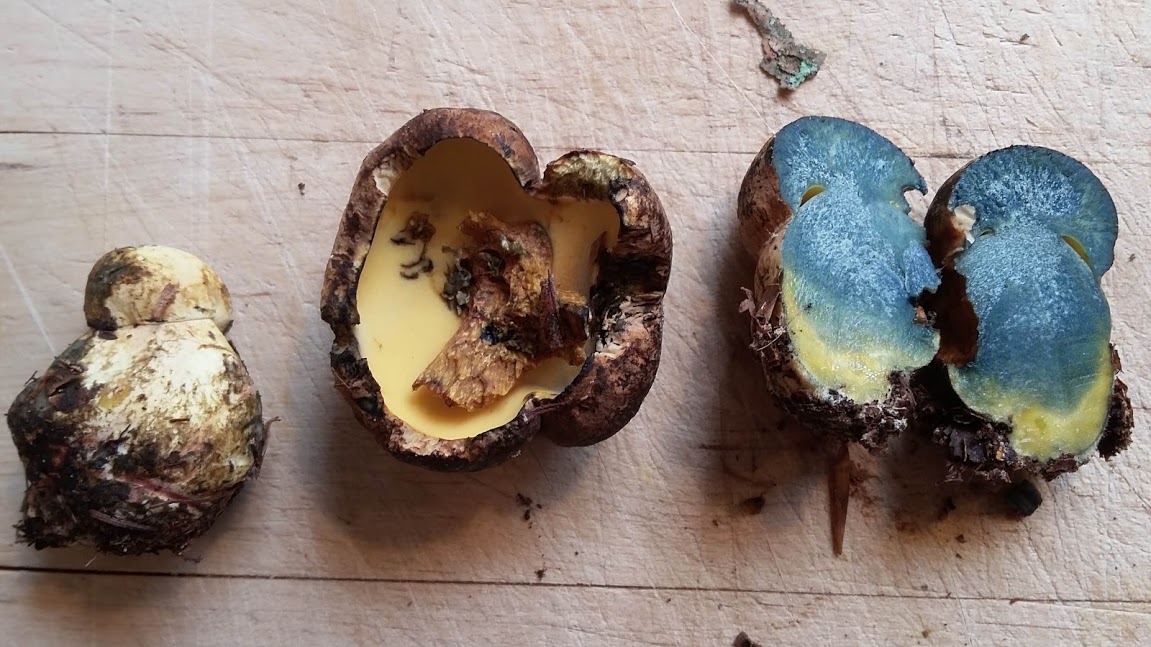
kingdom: Fungi
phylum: Basidiomycota
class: Agaricomycetes
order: Boletales
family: Boletaceae
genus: Cyanoboletus
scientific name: Cyanoboletus pulverulentus
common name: sortblånende rørhat
